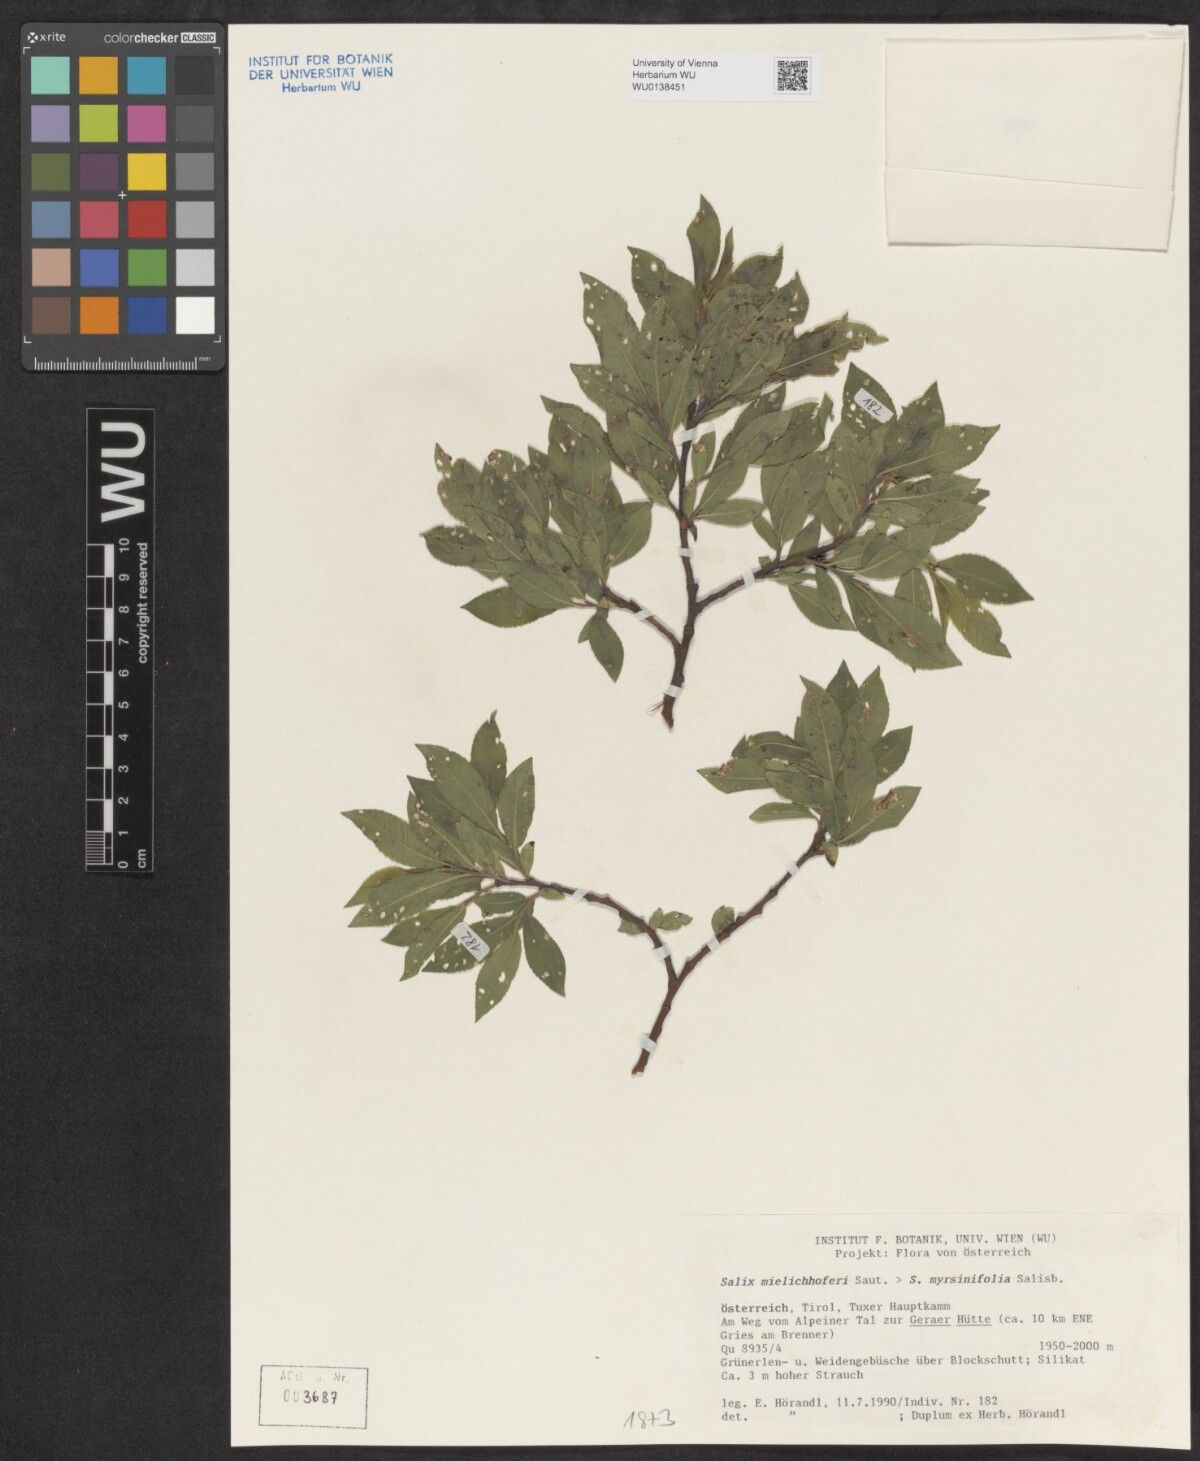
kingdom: Plantae
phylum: Tracheophyta
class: Magnoliopsida
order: Malpighiales
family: Salicaceae
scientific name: Salicaceae
